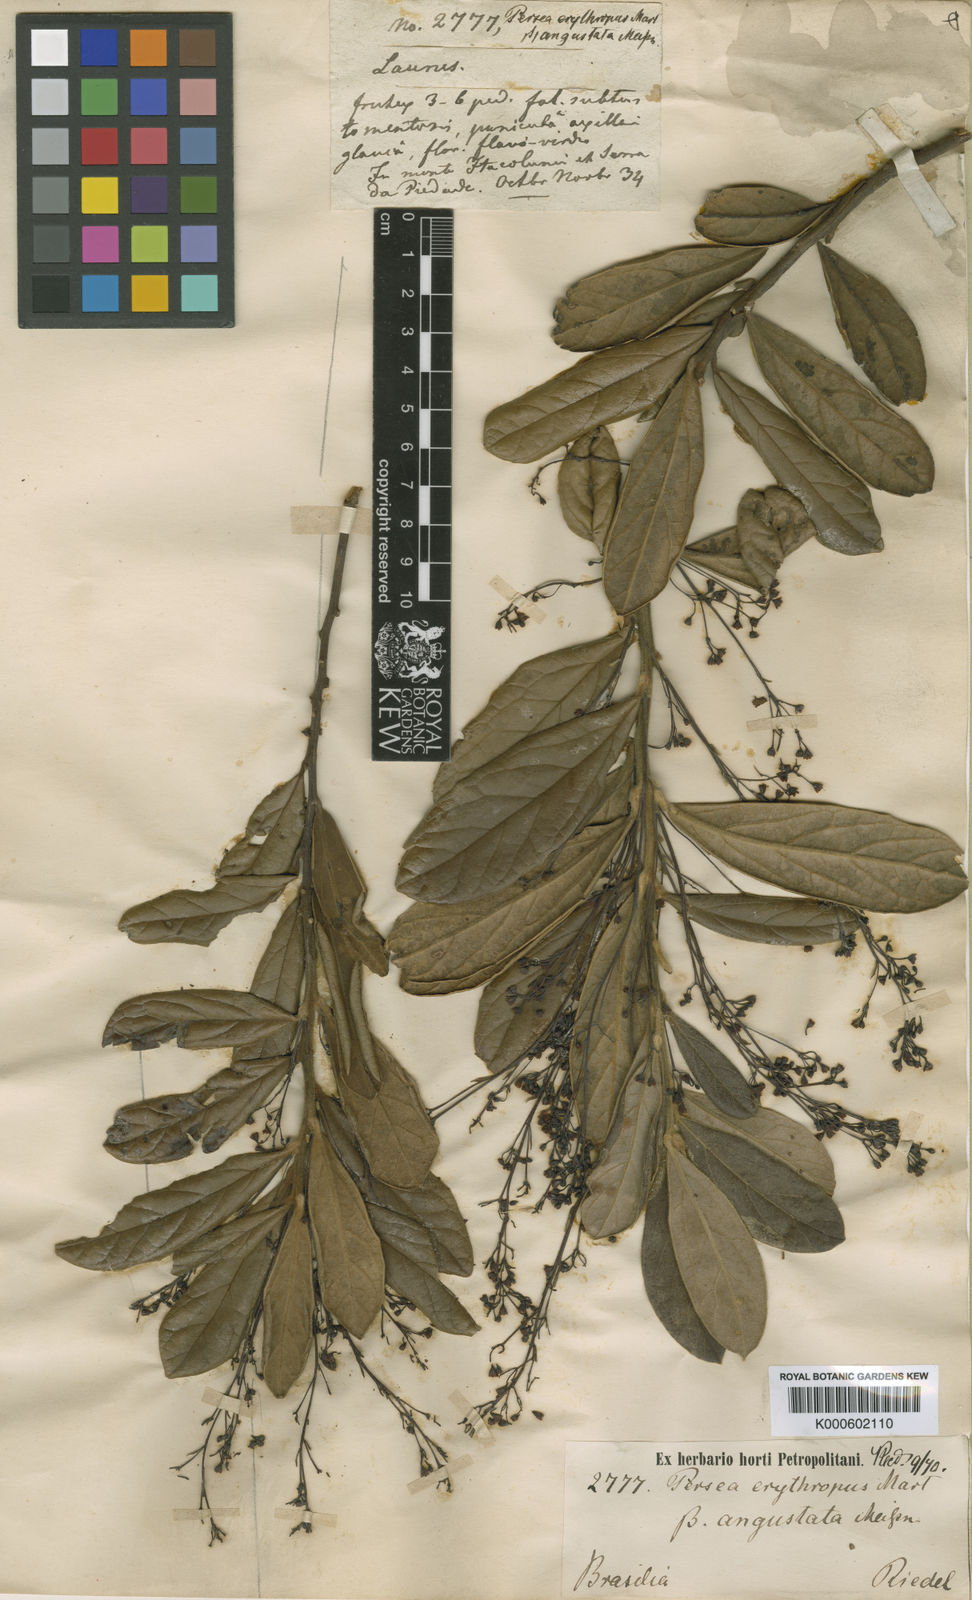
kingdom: Plantae
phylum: Tracheophyta
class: Magnoliopsida
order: Laurales
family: Lauraceae
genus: Aiouea
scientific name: Aiouea erythropus
